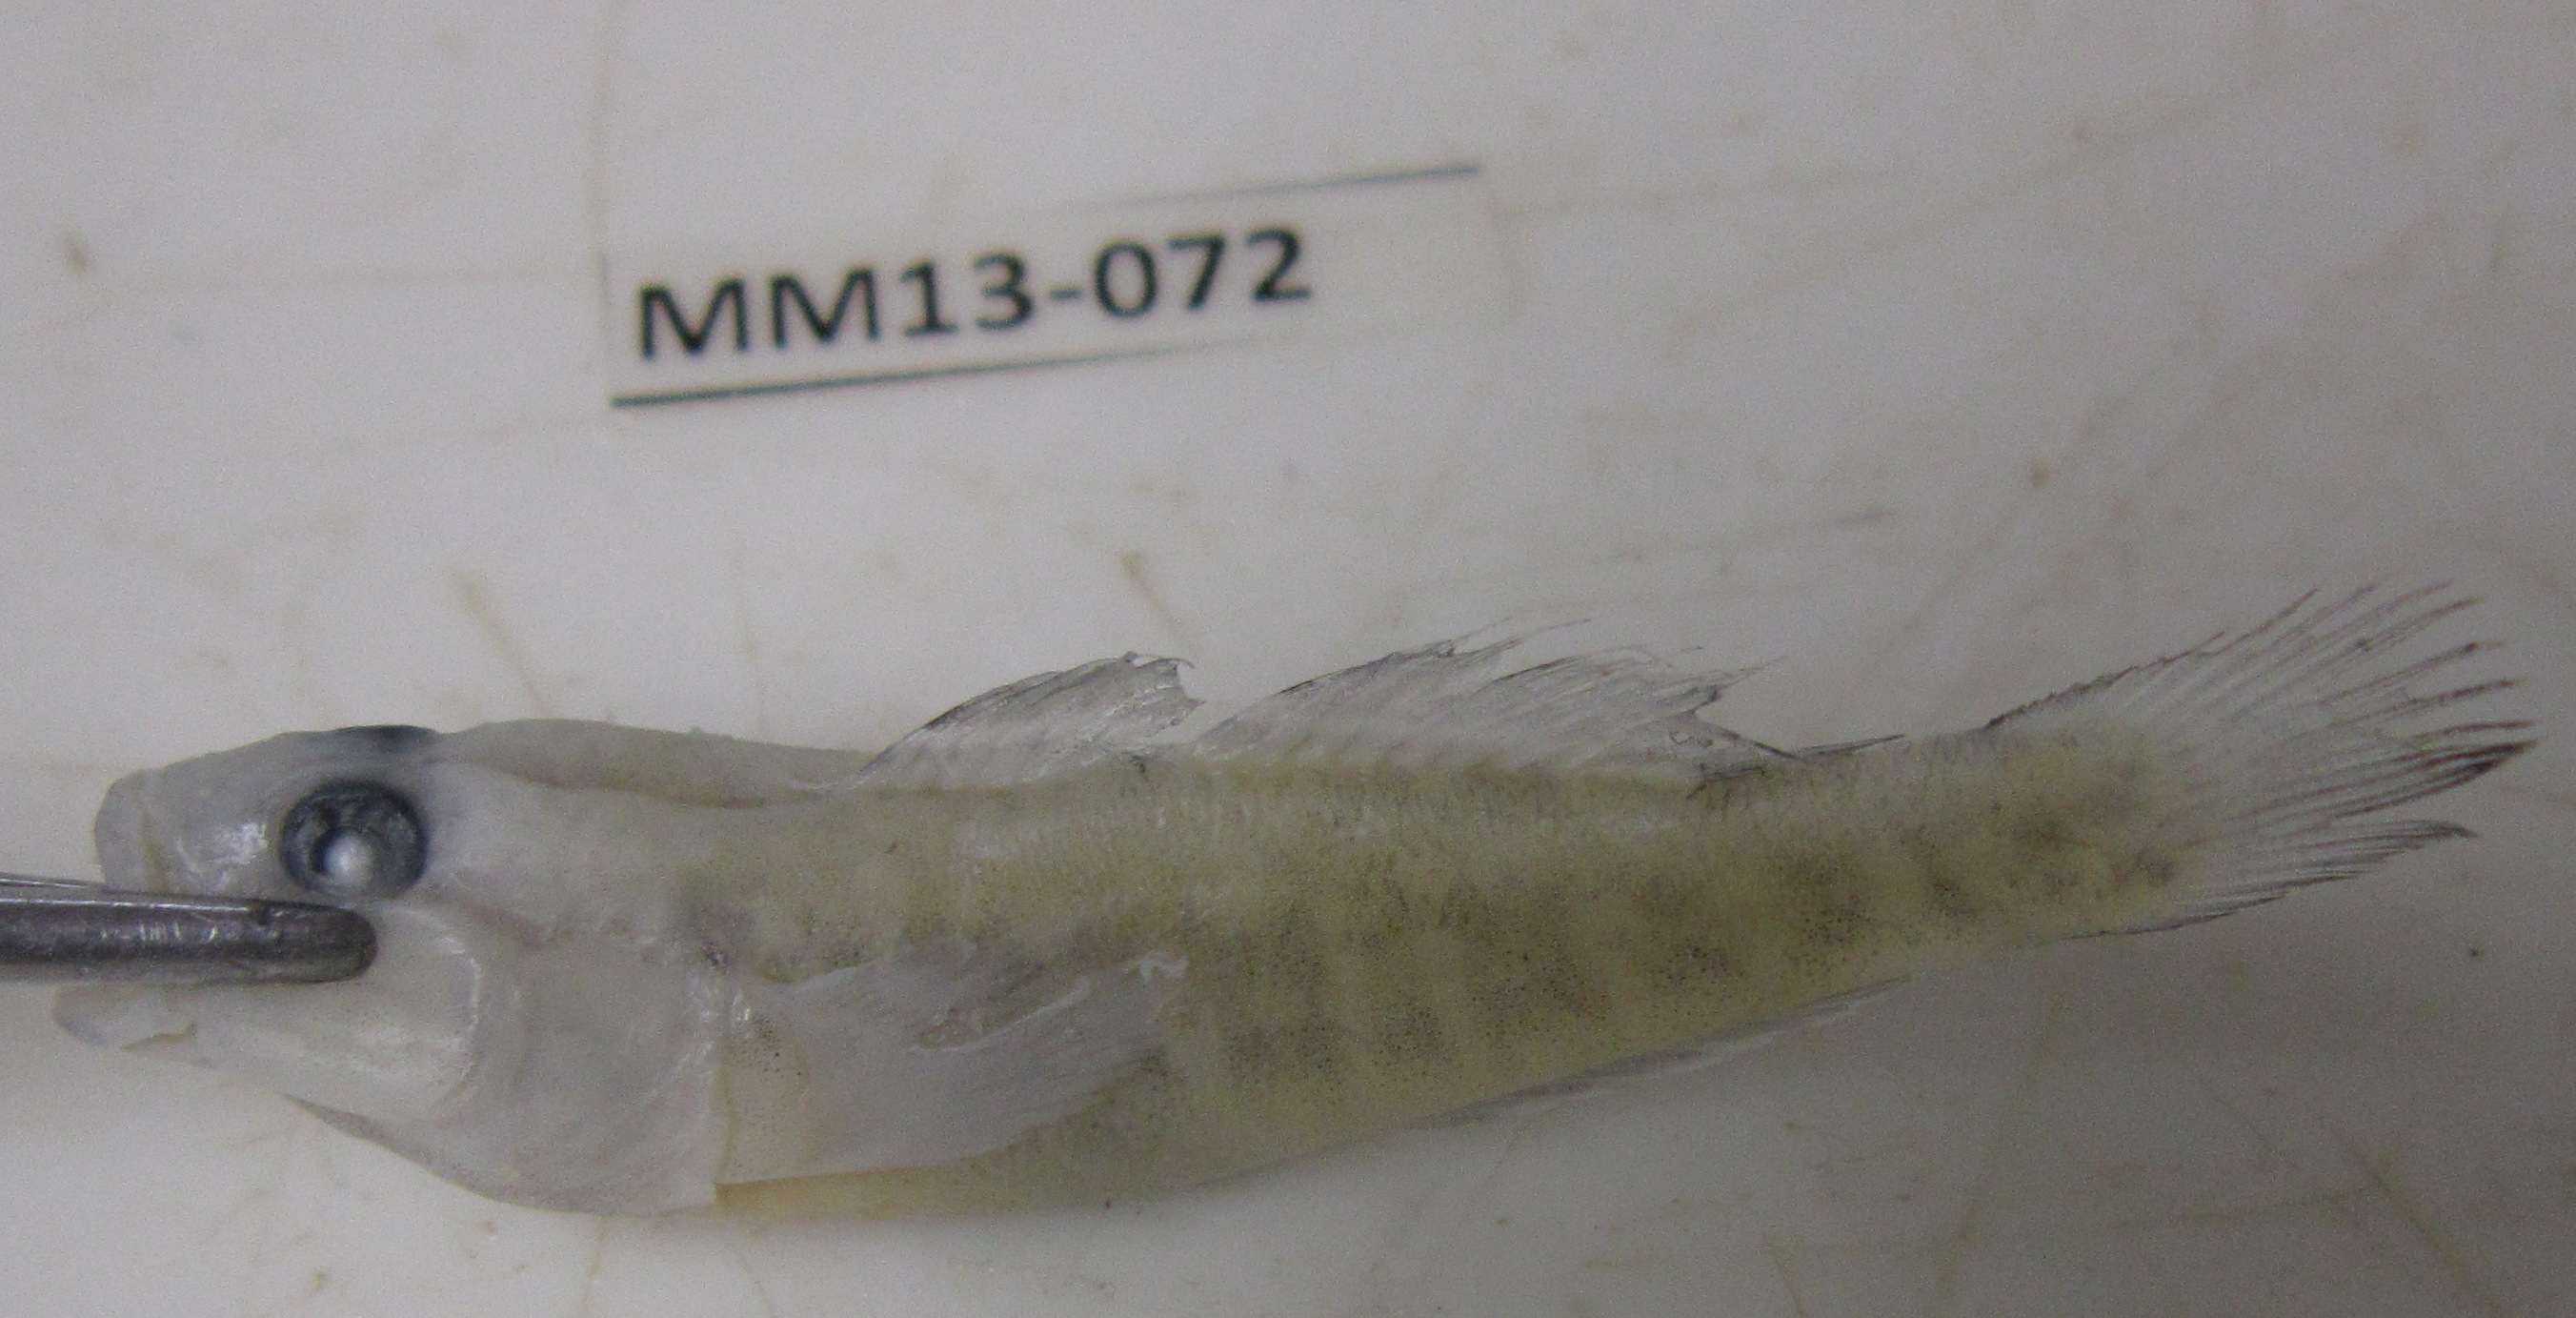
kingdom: Animalia
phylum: Chordata
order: Perciformes
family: Gobiidae
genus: Caffrogobius
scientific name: Caffrogobius
